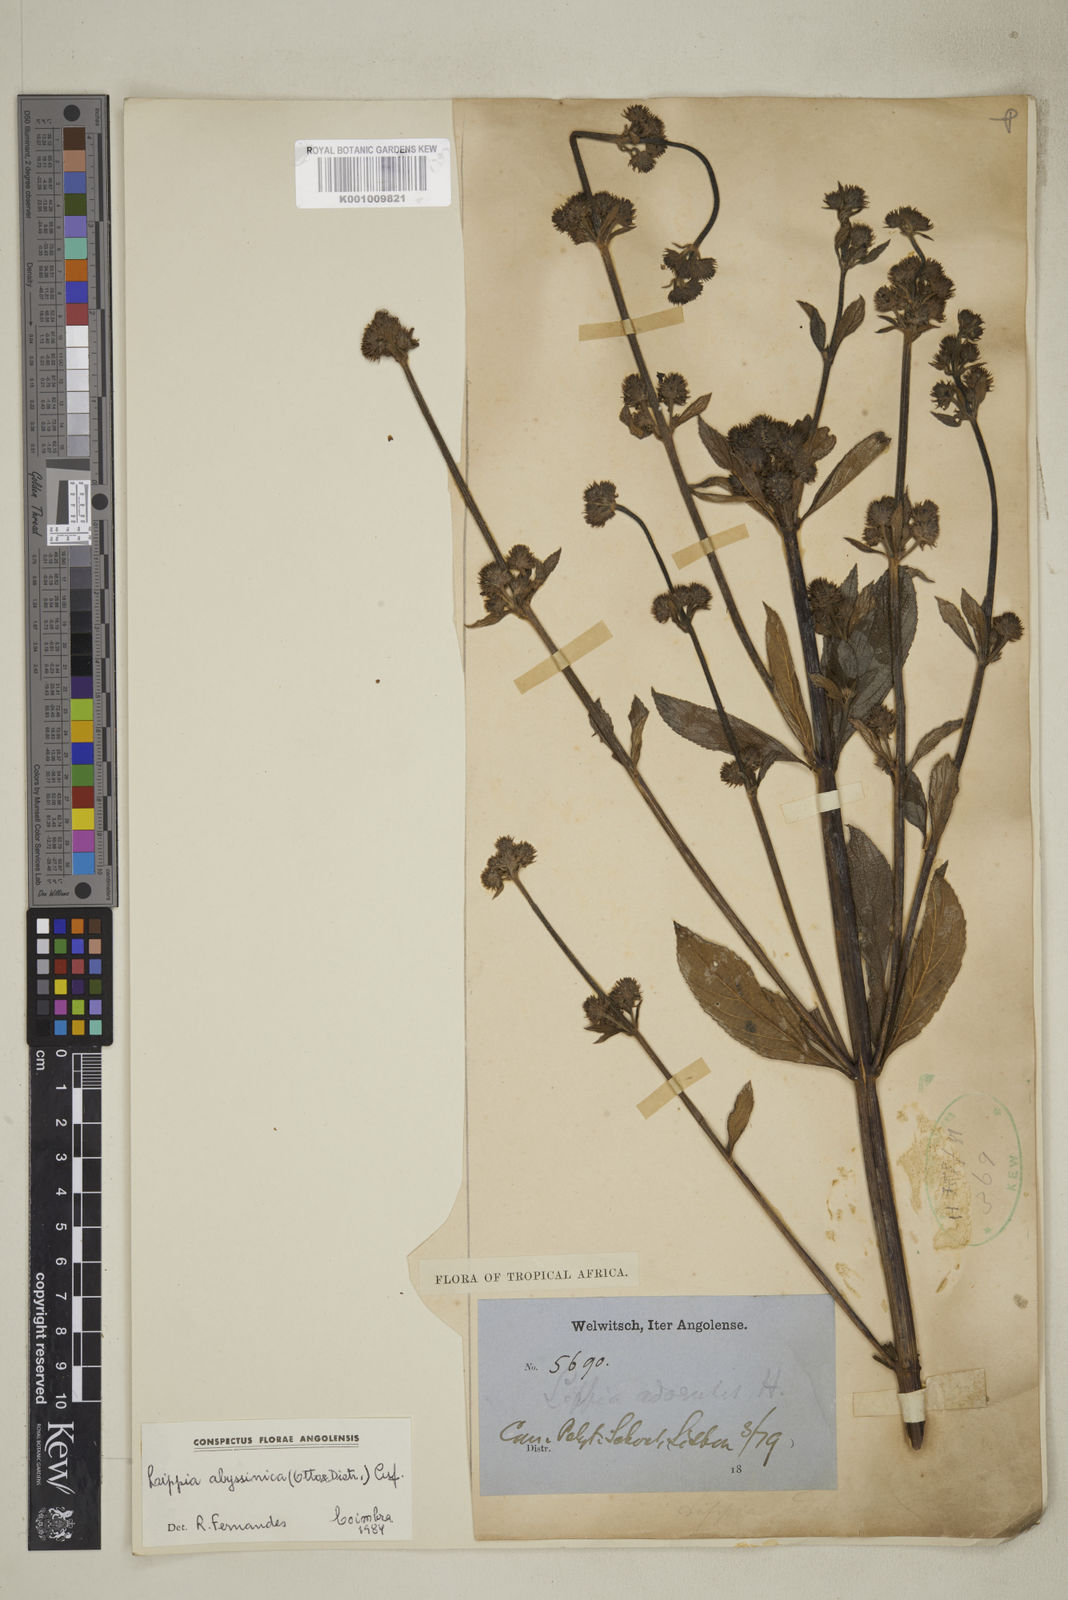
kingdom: Plantae
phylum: Tracheophyta
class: Magnoliopsida
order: Lamiales
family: Verbenaceae
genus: Lippia
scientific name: Lippia abyssinica
